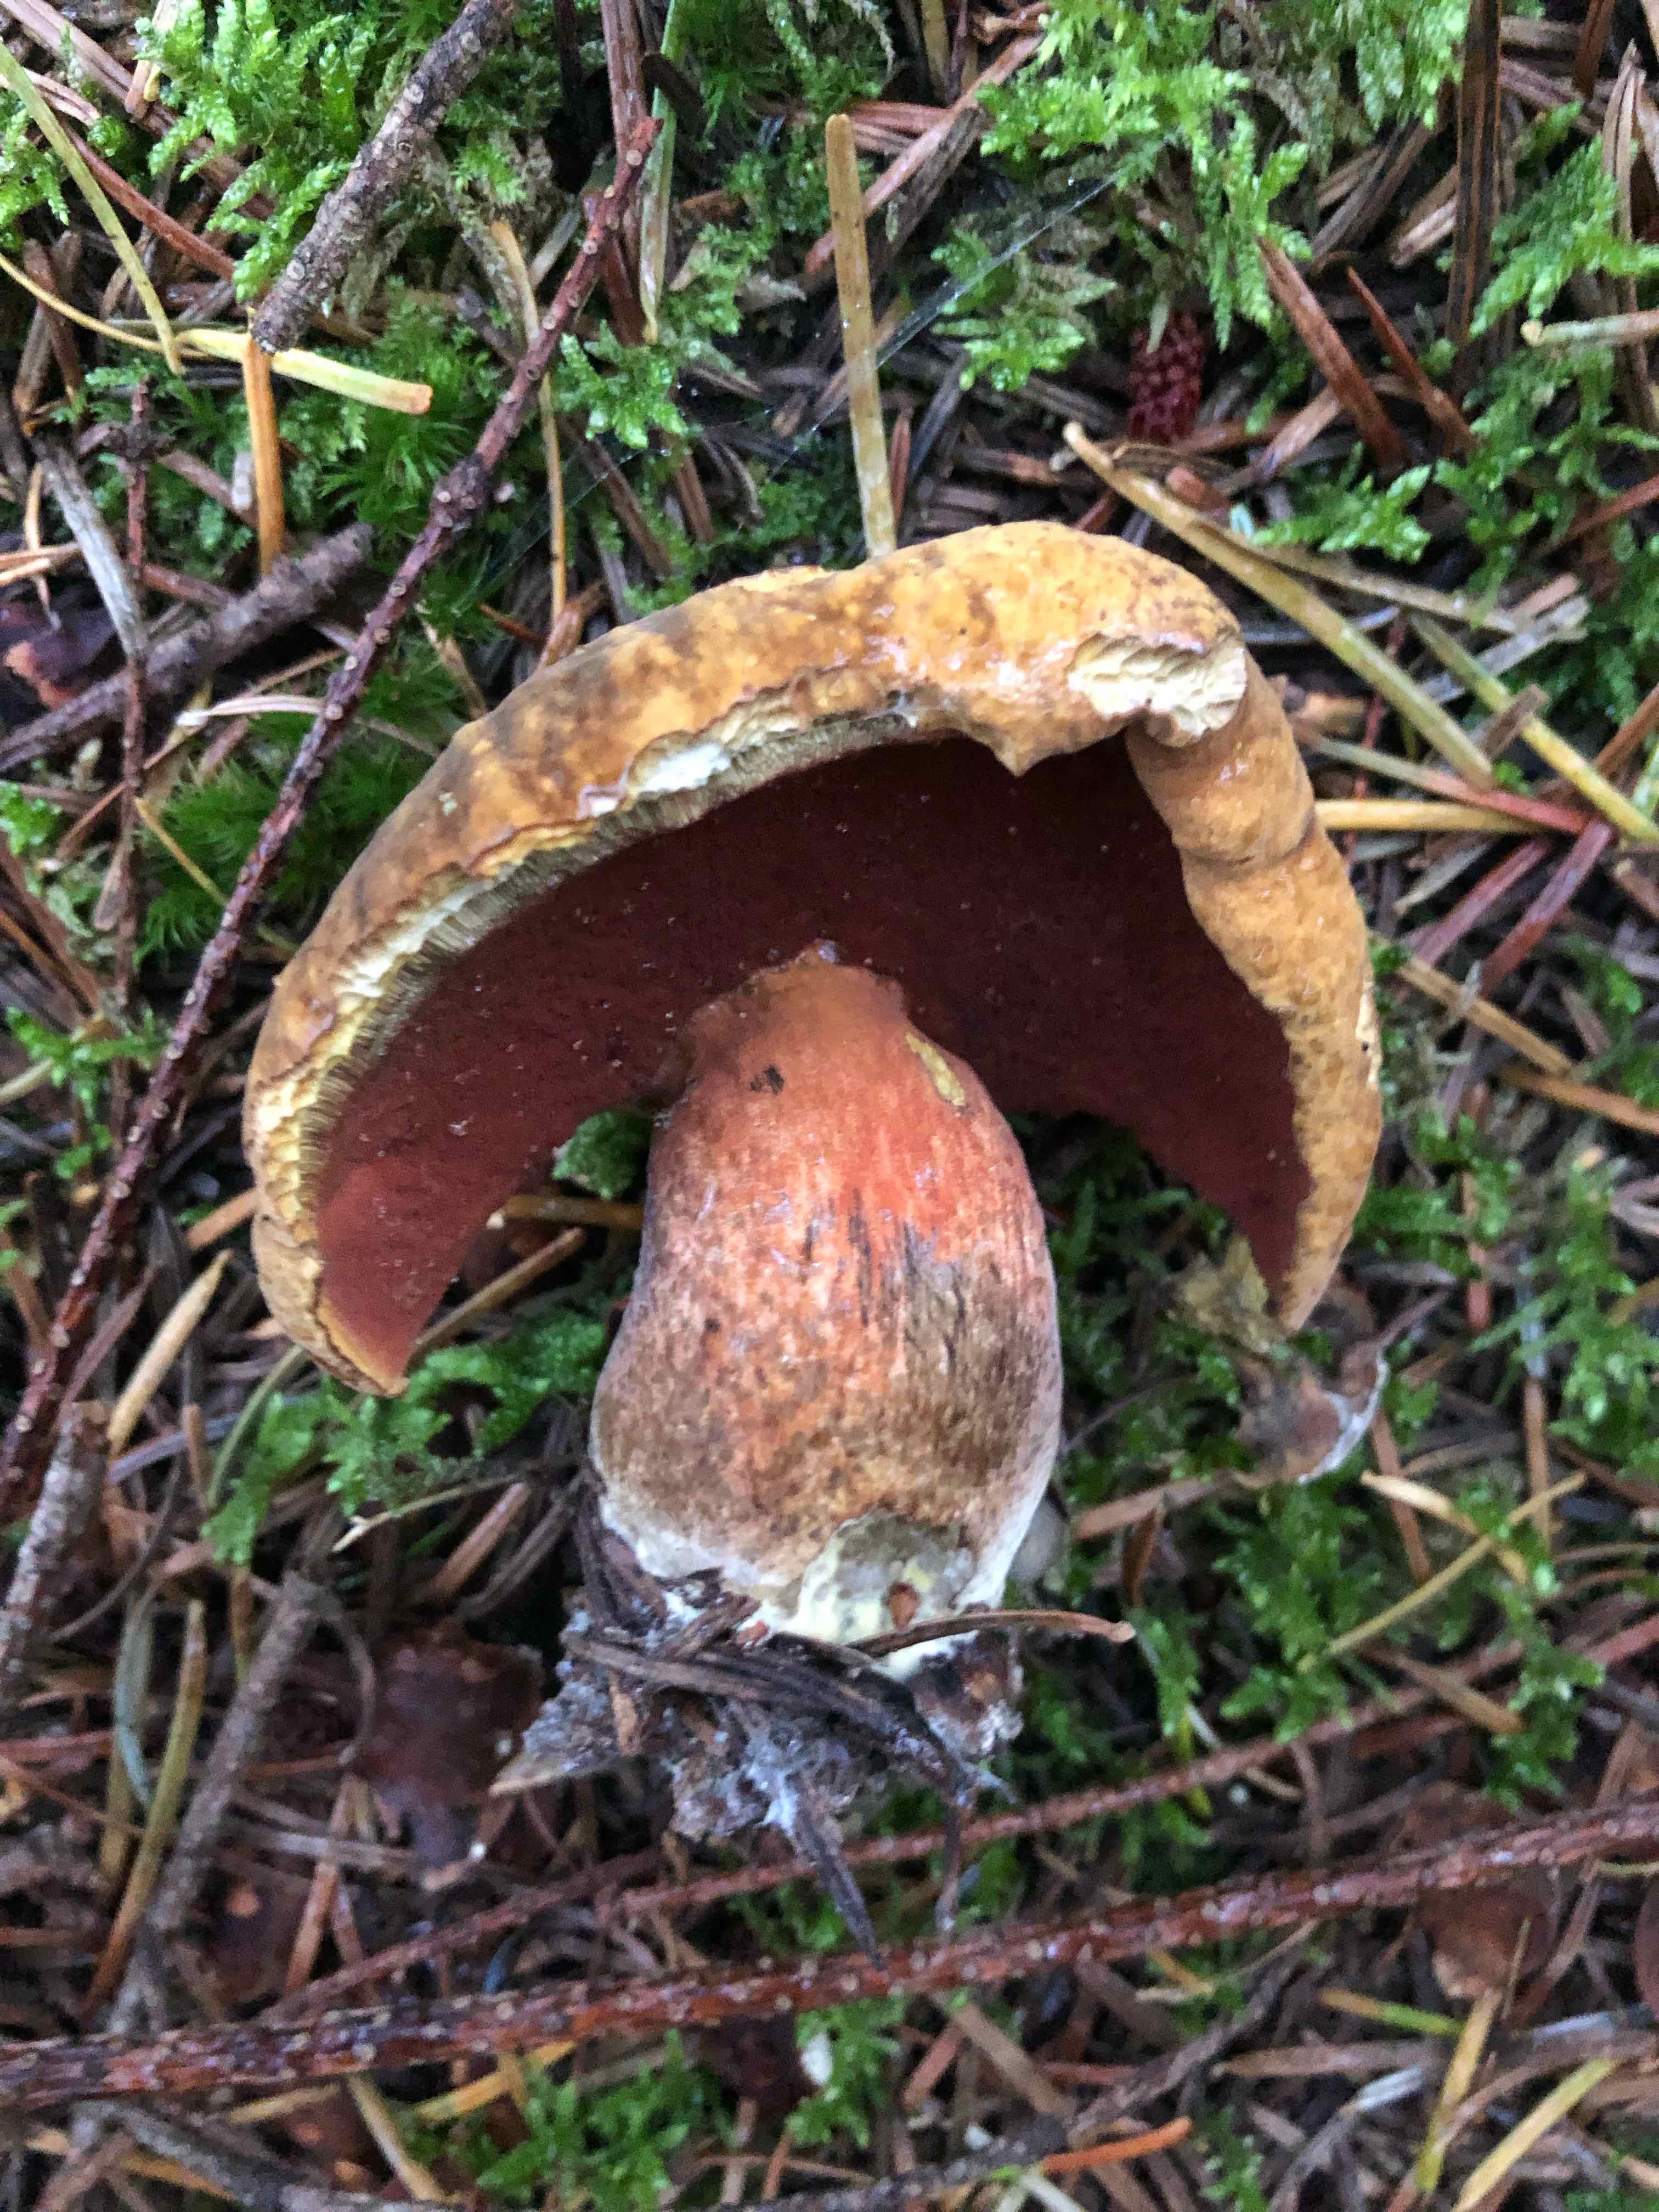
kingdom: Fungi
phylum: Basidiomycota
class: Agaricomycetes
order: Boletales
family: Boletaceae
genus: Neoboletus
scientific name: Neoboletus erythropus
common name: punktstokket indigorørhat
